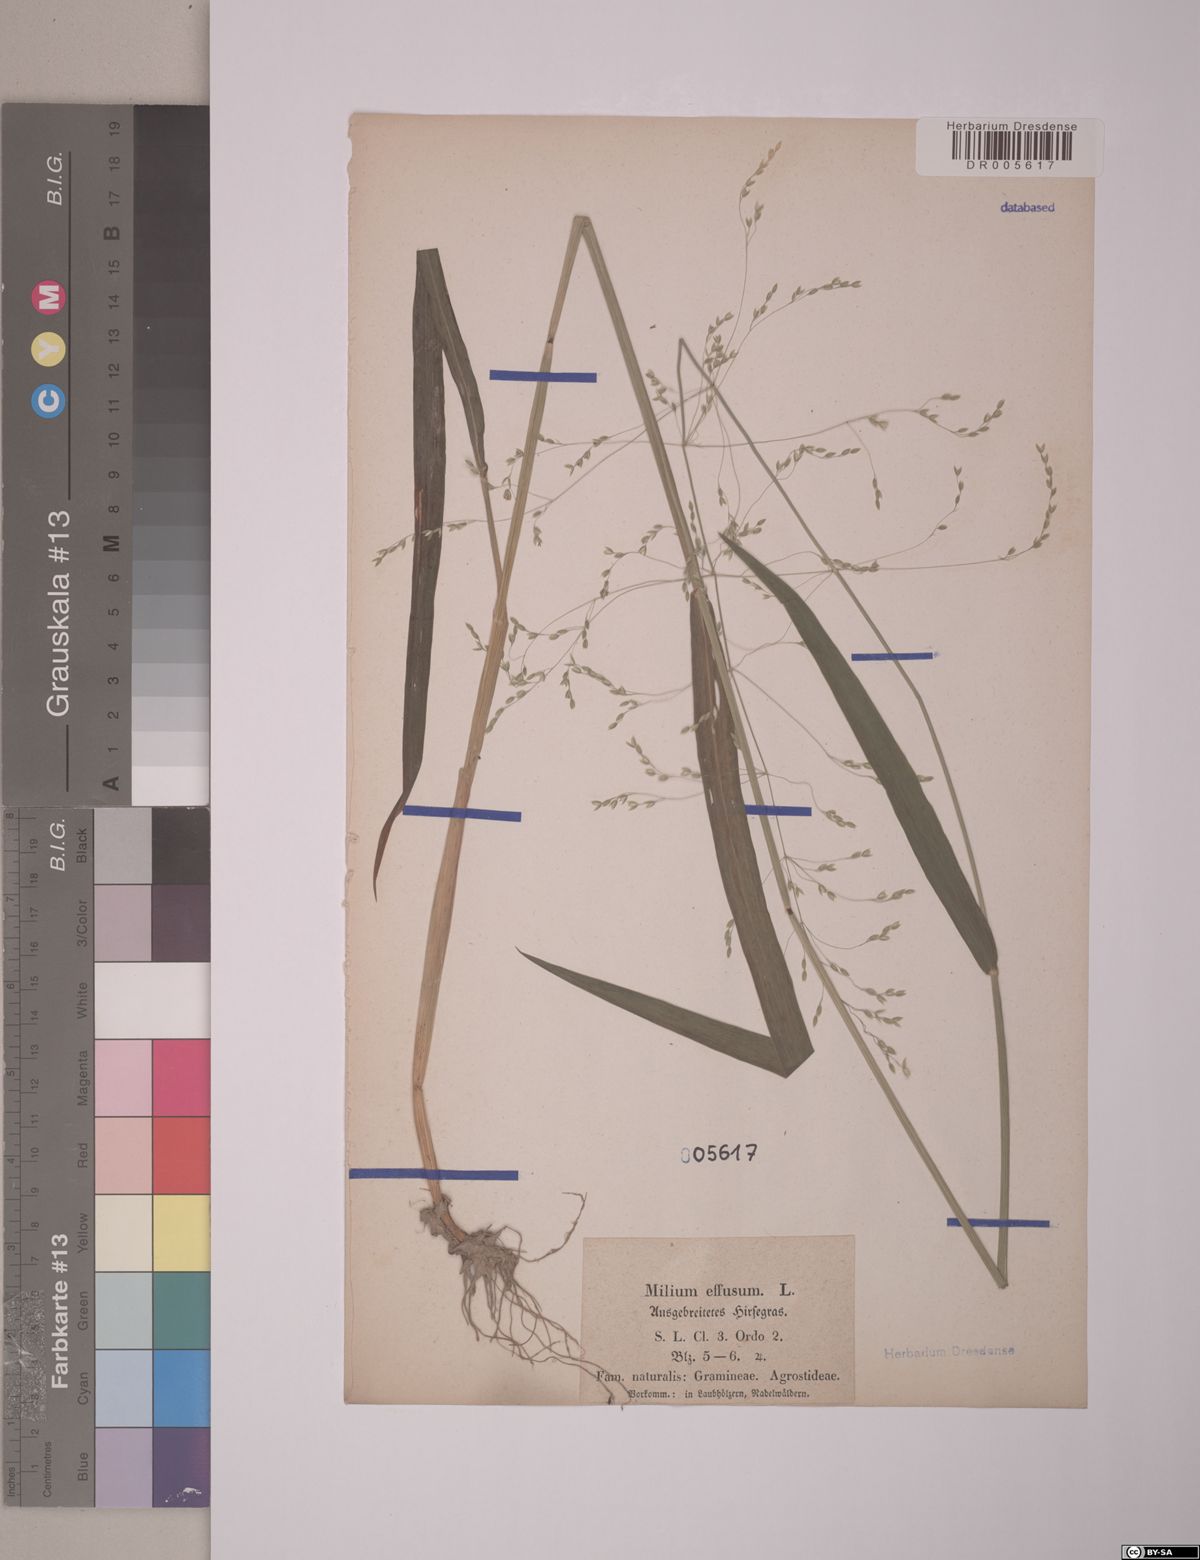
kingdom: Plantae
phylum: Tracheophyta
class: Liliopsida
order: Poales
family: Poaceae
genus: Milium
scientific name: Milium effusum
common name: Wood millet
